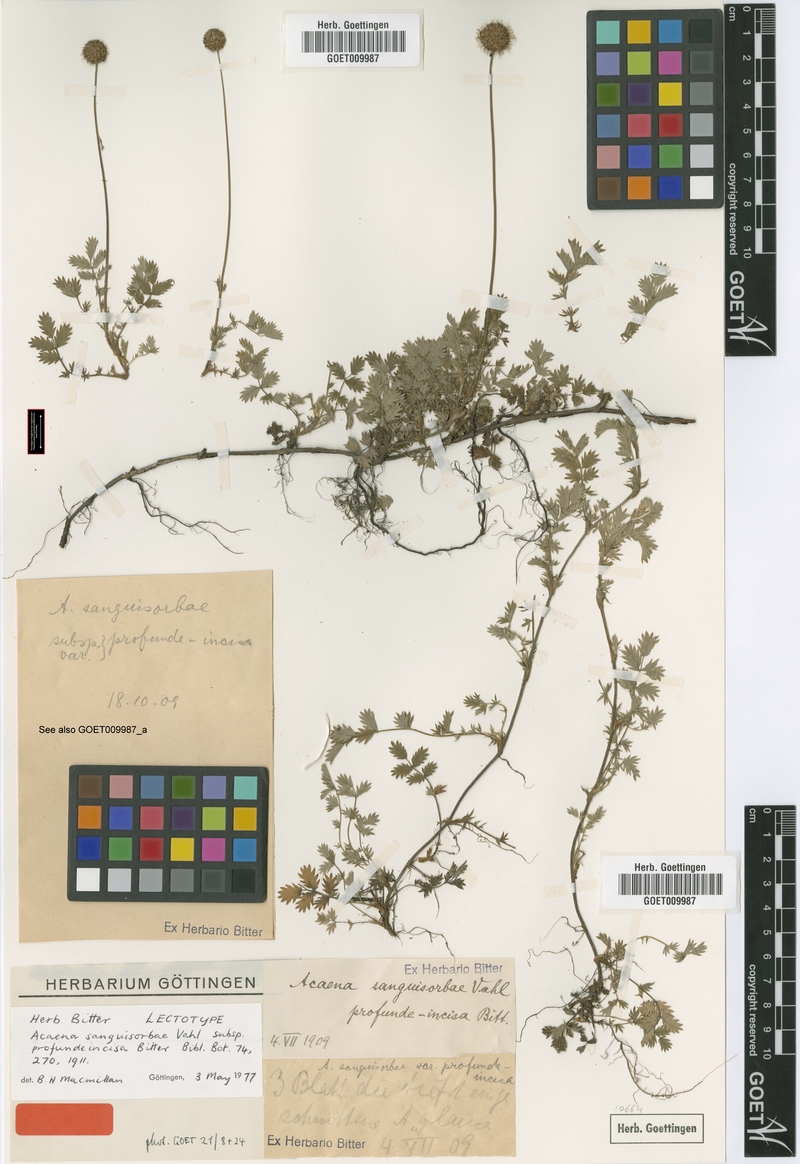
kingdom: Plantae
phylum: Tracheophyta
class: Magnoliopsida
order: Rosales
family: Rosaceae
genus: Acaena
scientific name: Acaena profundeincisa
